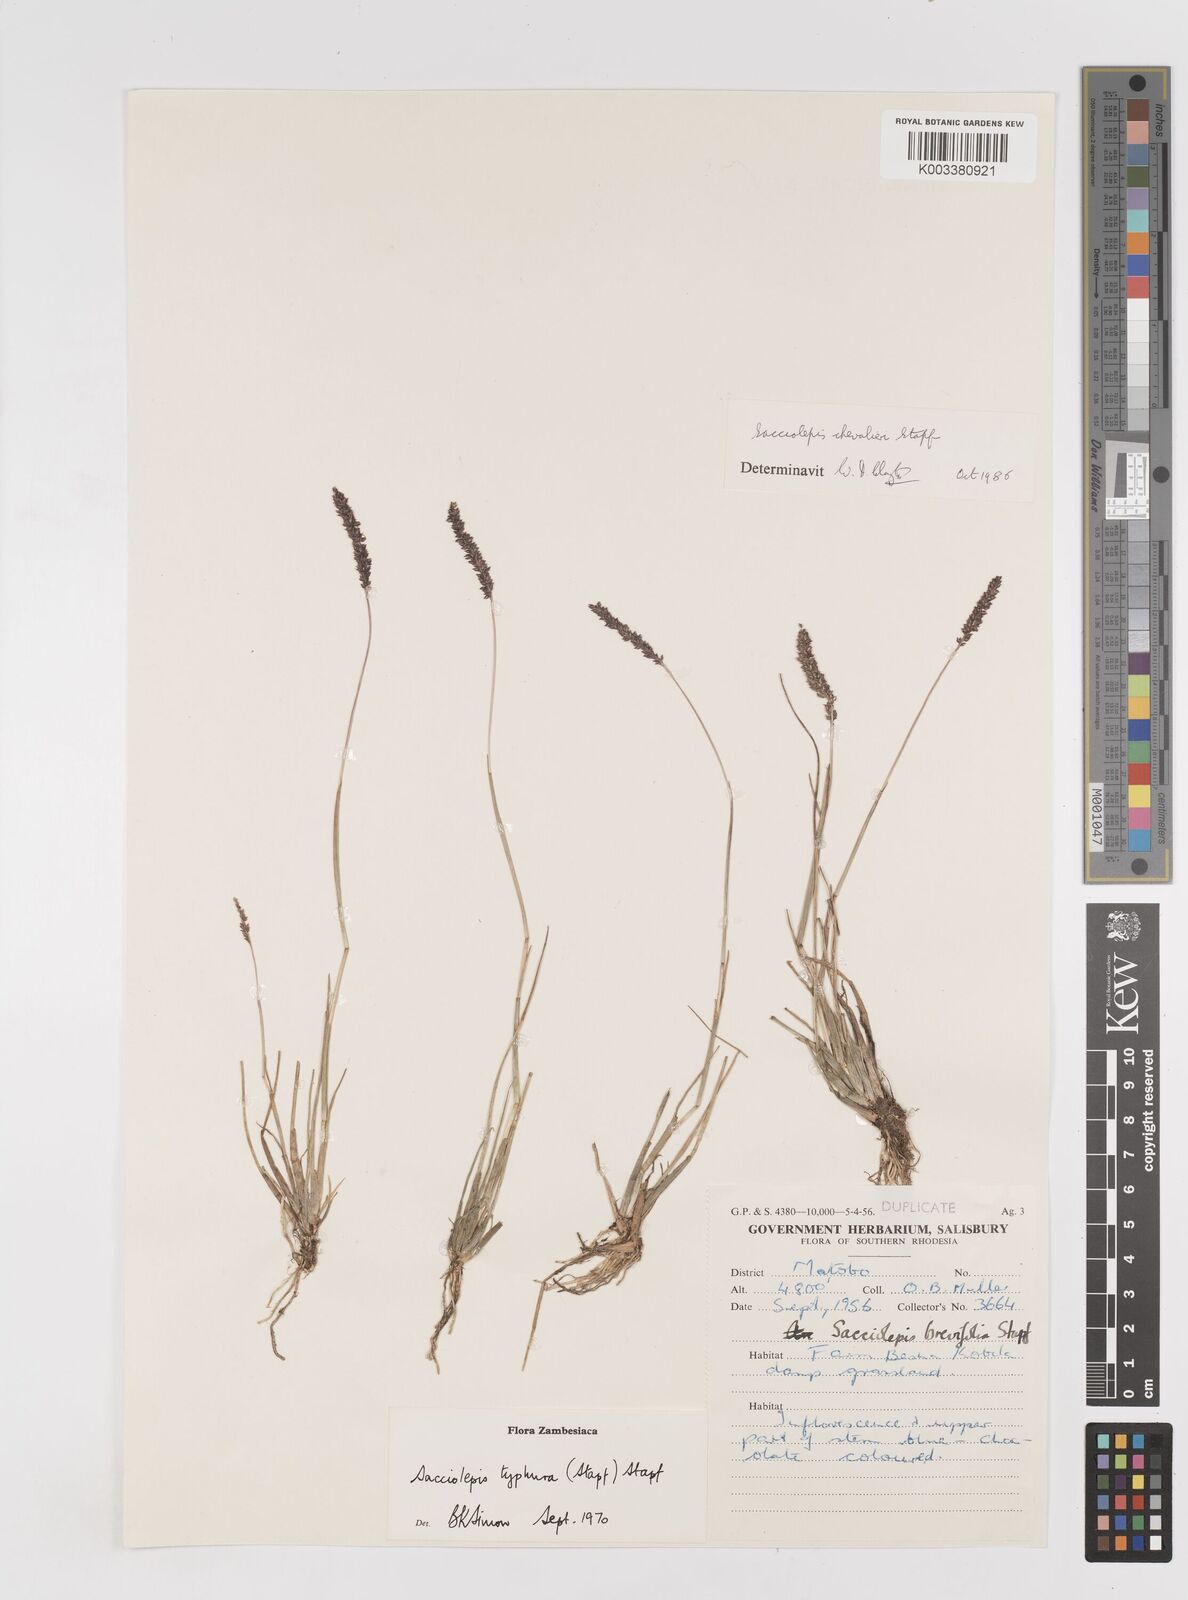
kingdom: Plantae
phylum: Tracheophyta
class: Liliopsida
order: Poales
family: Poaceae
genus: Sacciolepis
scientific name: Sacciolepis chevalieri
